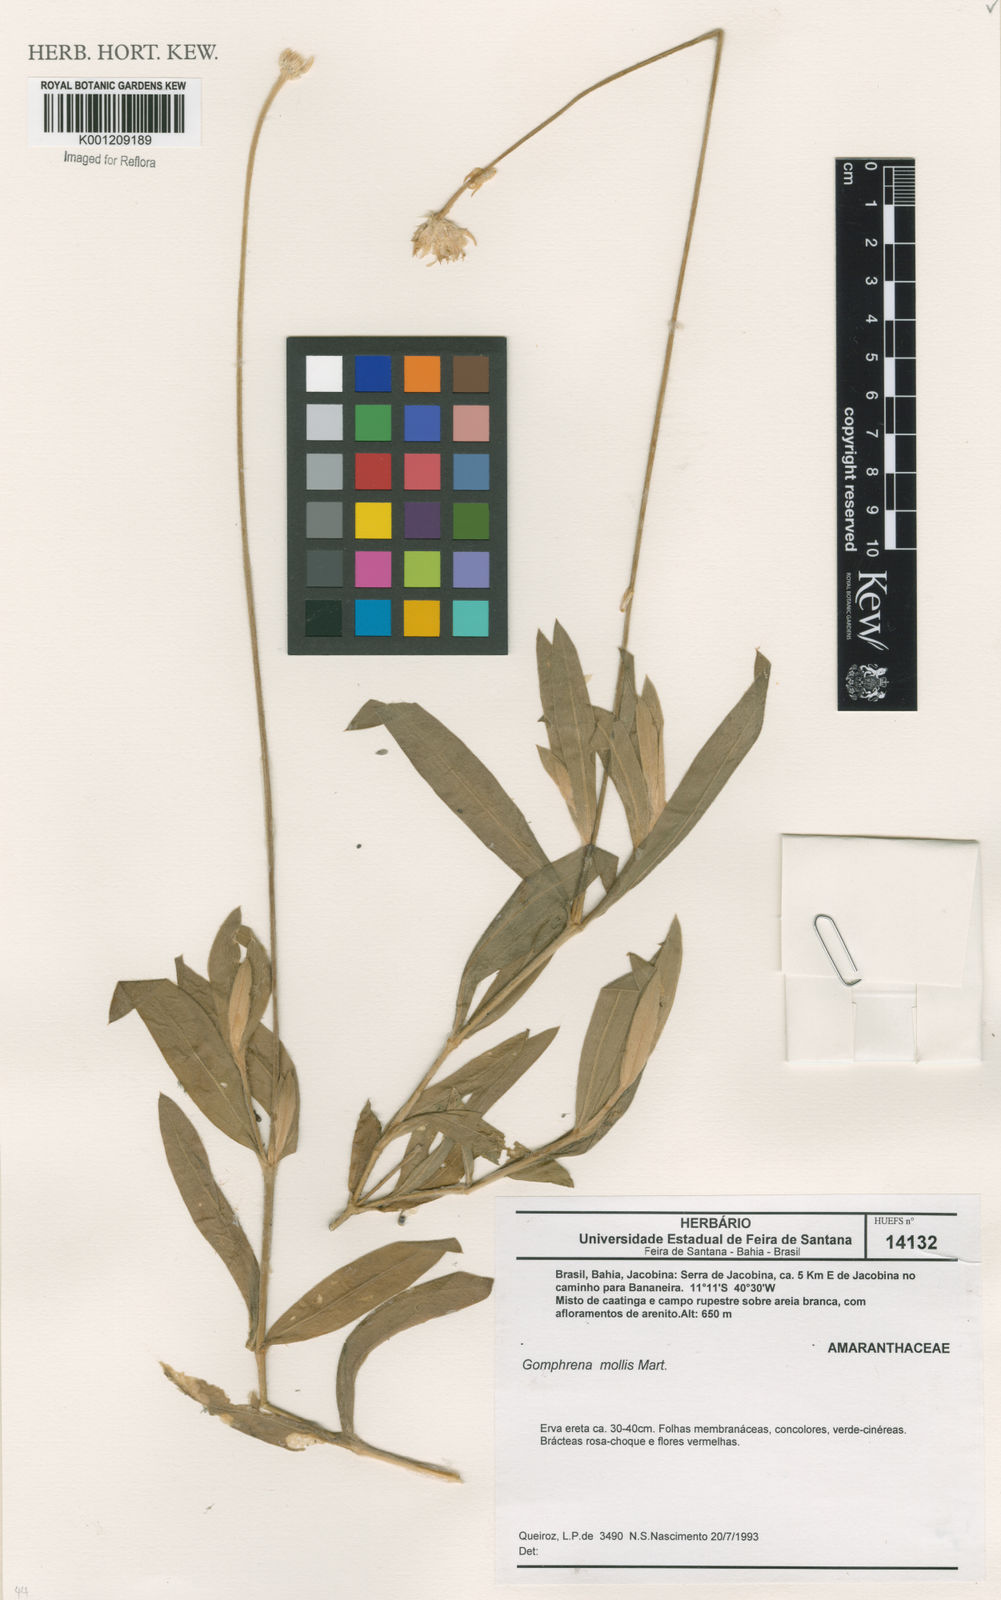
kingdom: Plantae
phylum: Tracheophyta
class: Magnoliopsida
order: Caryophyllales
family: Amaranthaceae
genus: Gomphrena
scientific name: Gomphrena mollis
